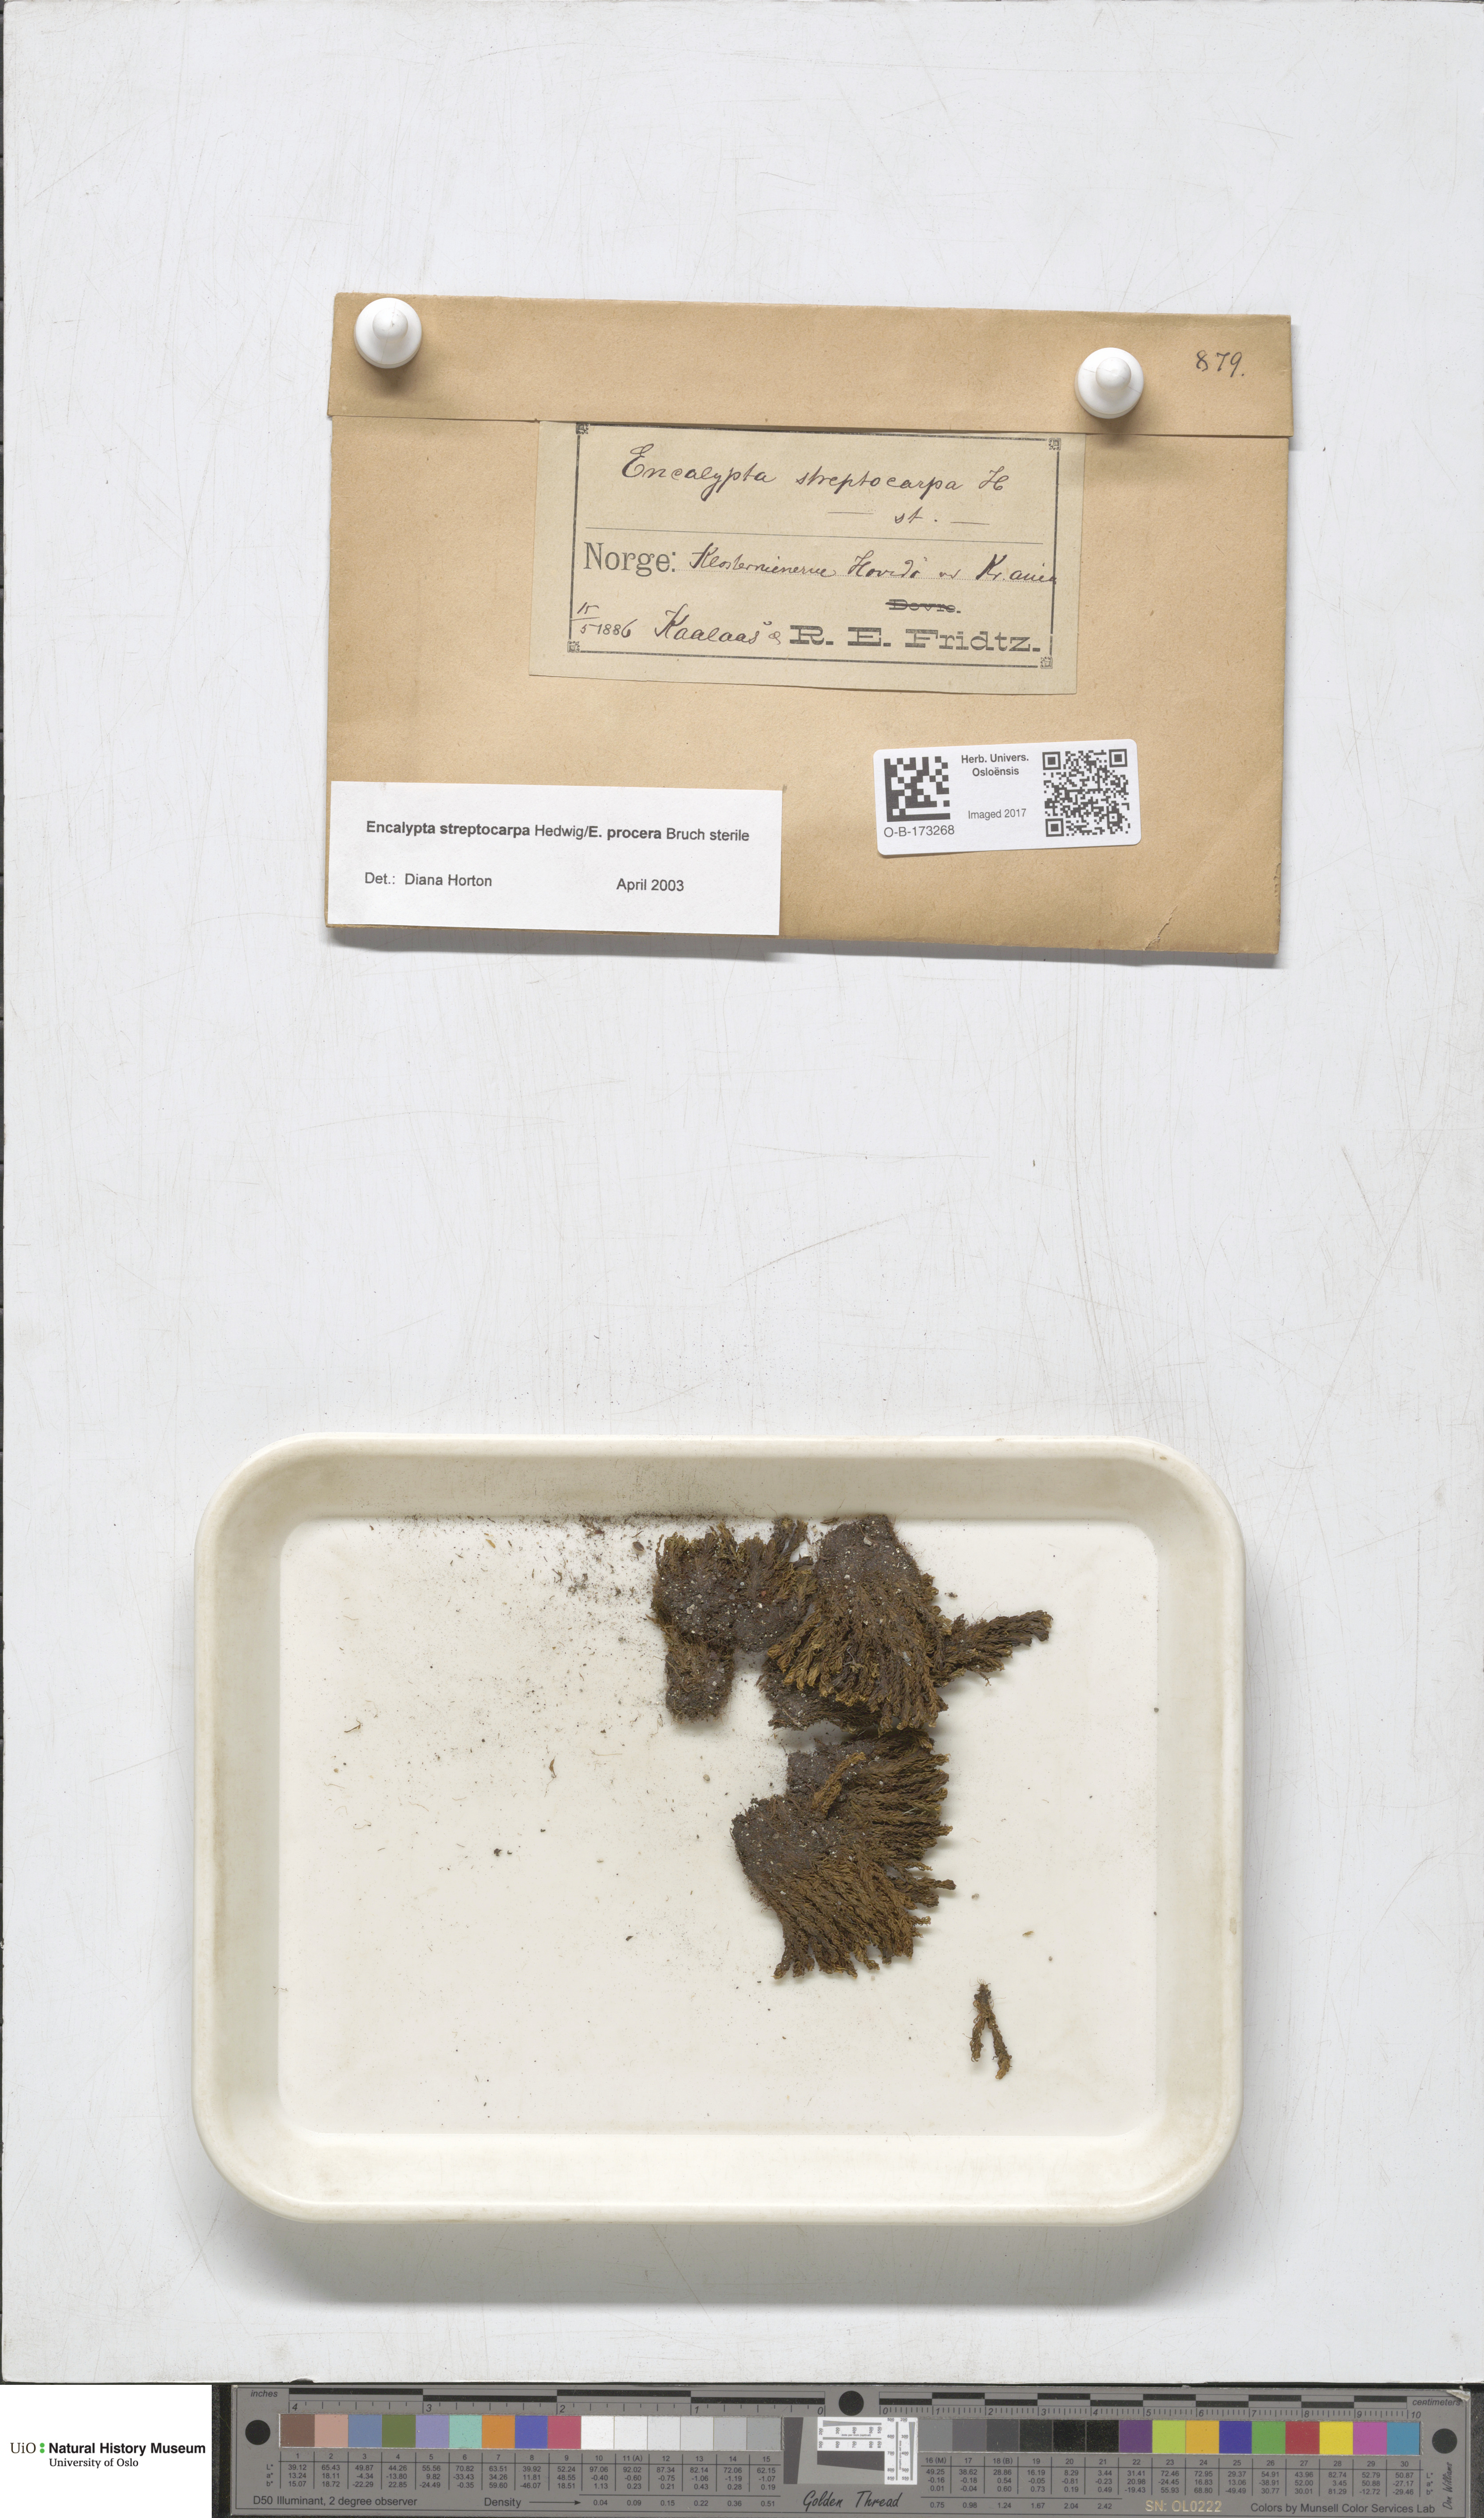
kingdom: Plantae
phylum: Bryophyta
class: Bryopsida
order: Encalyptales
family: Encalyptaceae
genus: Encalypta
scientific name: Encalypta
